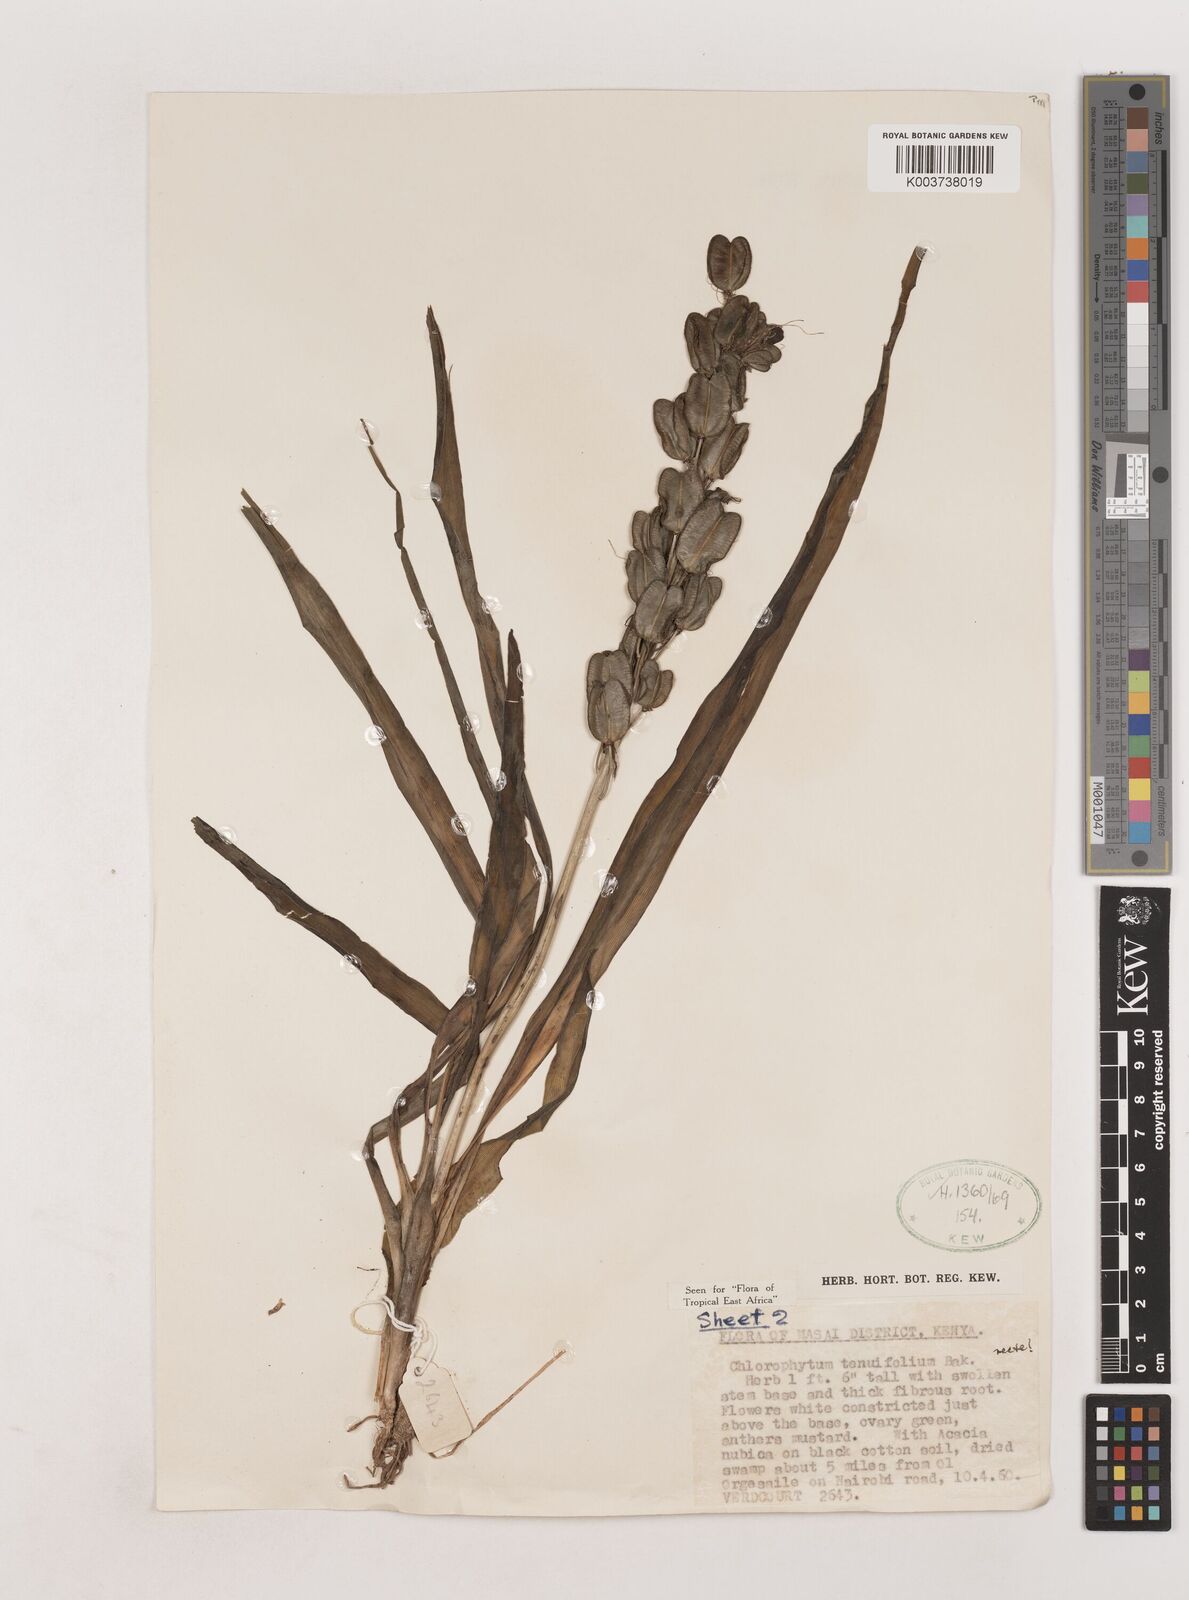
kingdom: Plantae
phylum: Tracheophyta
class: Liliopsida
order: Asparagales
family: Asparagaceae
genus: Chlorophytum
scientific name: Chlorophytum somaliense
